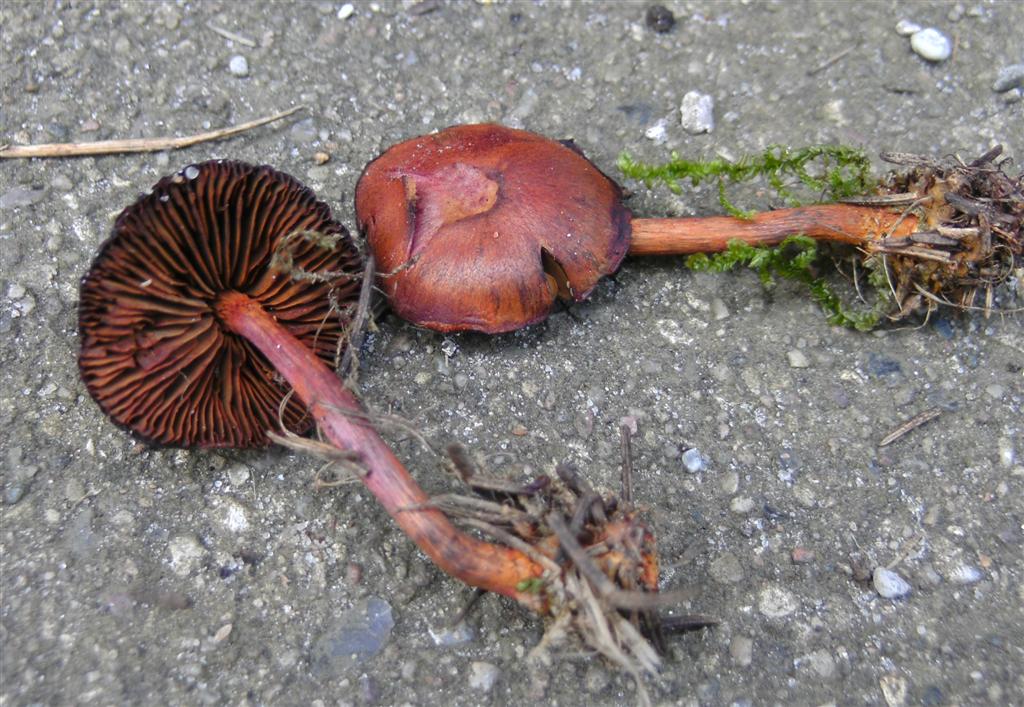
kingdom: Fungi
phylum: Basidiomycota
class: Agaricomycetes
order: Agaricales
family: Cortinariaceae
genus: Cortinarius
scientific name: Cortinarius sanguineus
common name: blodrød slørhat
